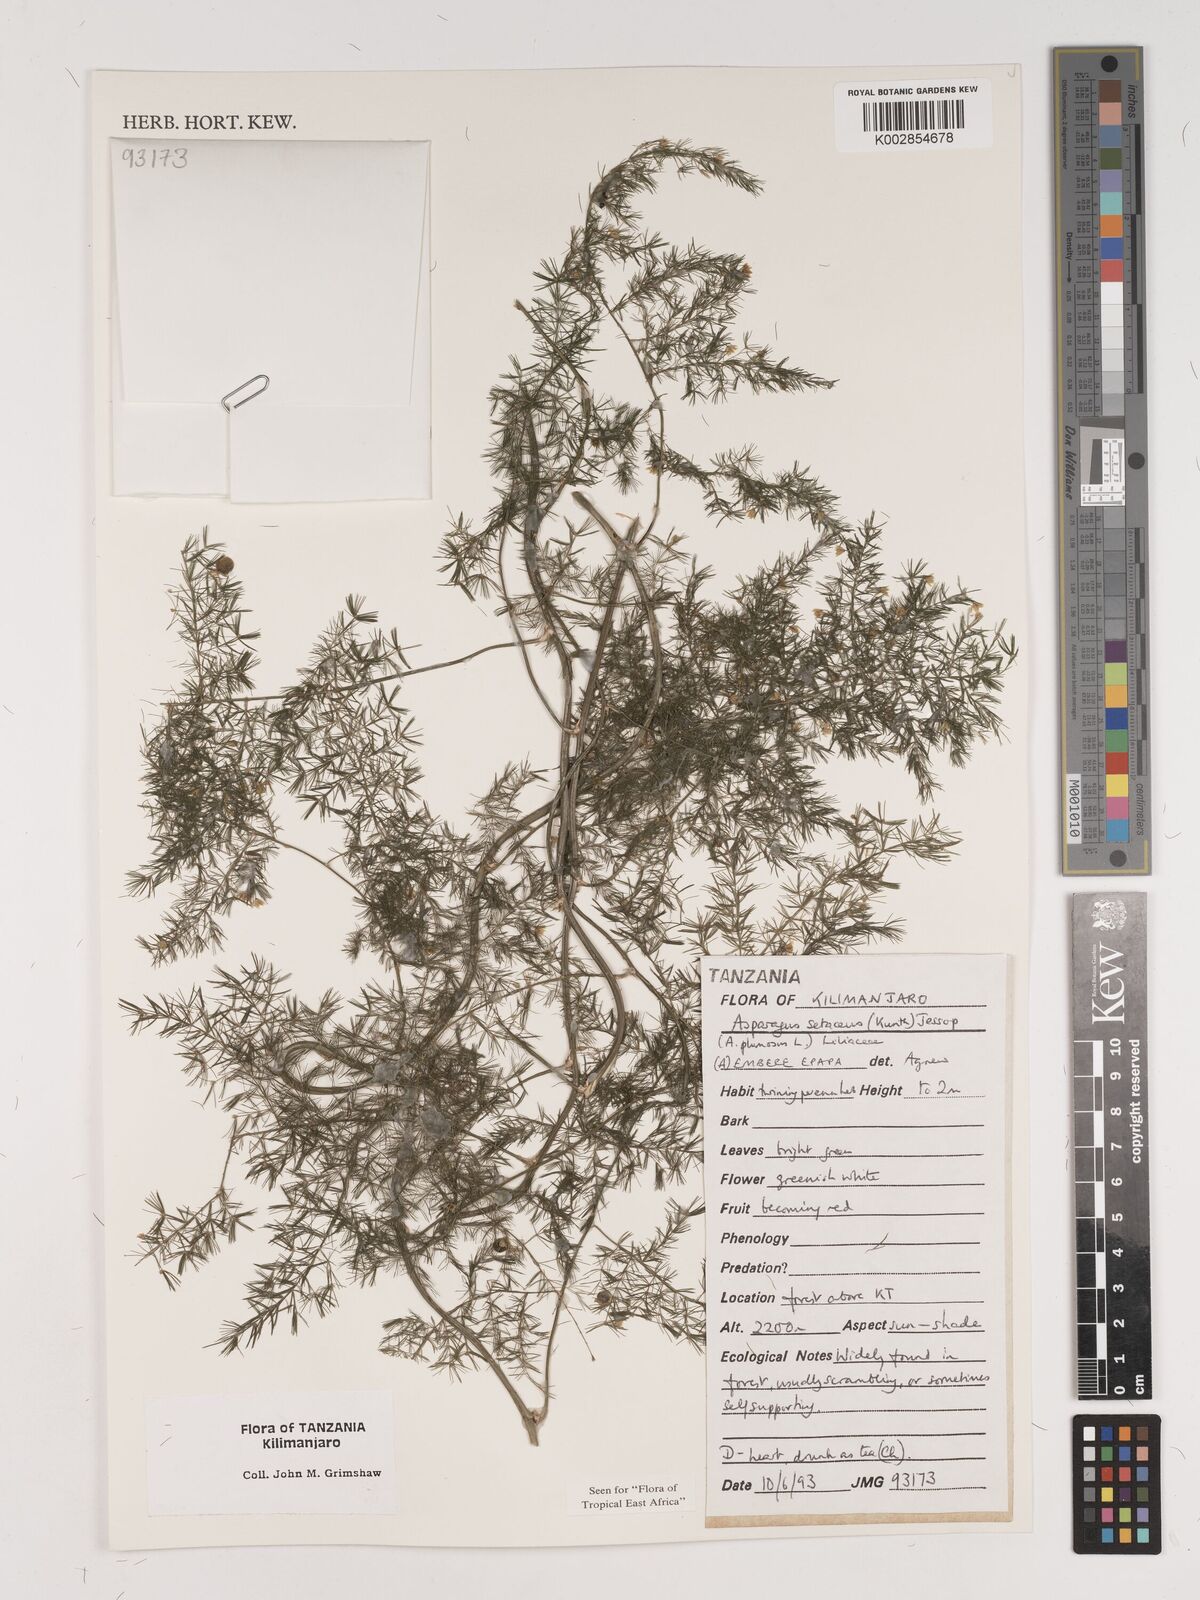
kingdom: Plantae
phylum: Tracheophyta
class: Liliopsida
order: Asparagales
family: Asparagaceae
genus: Asparagus
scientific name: Asparagus setaceus
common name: Common asparagus fern
